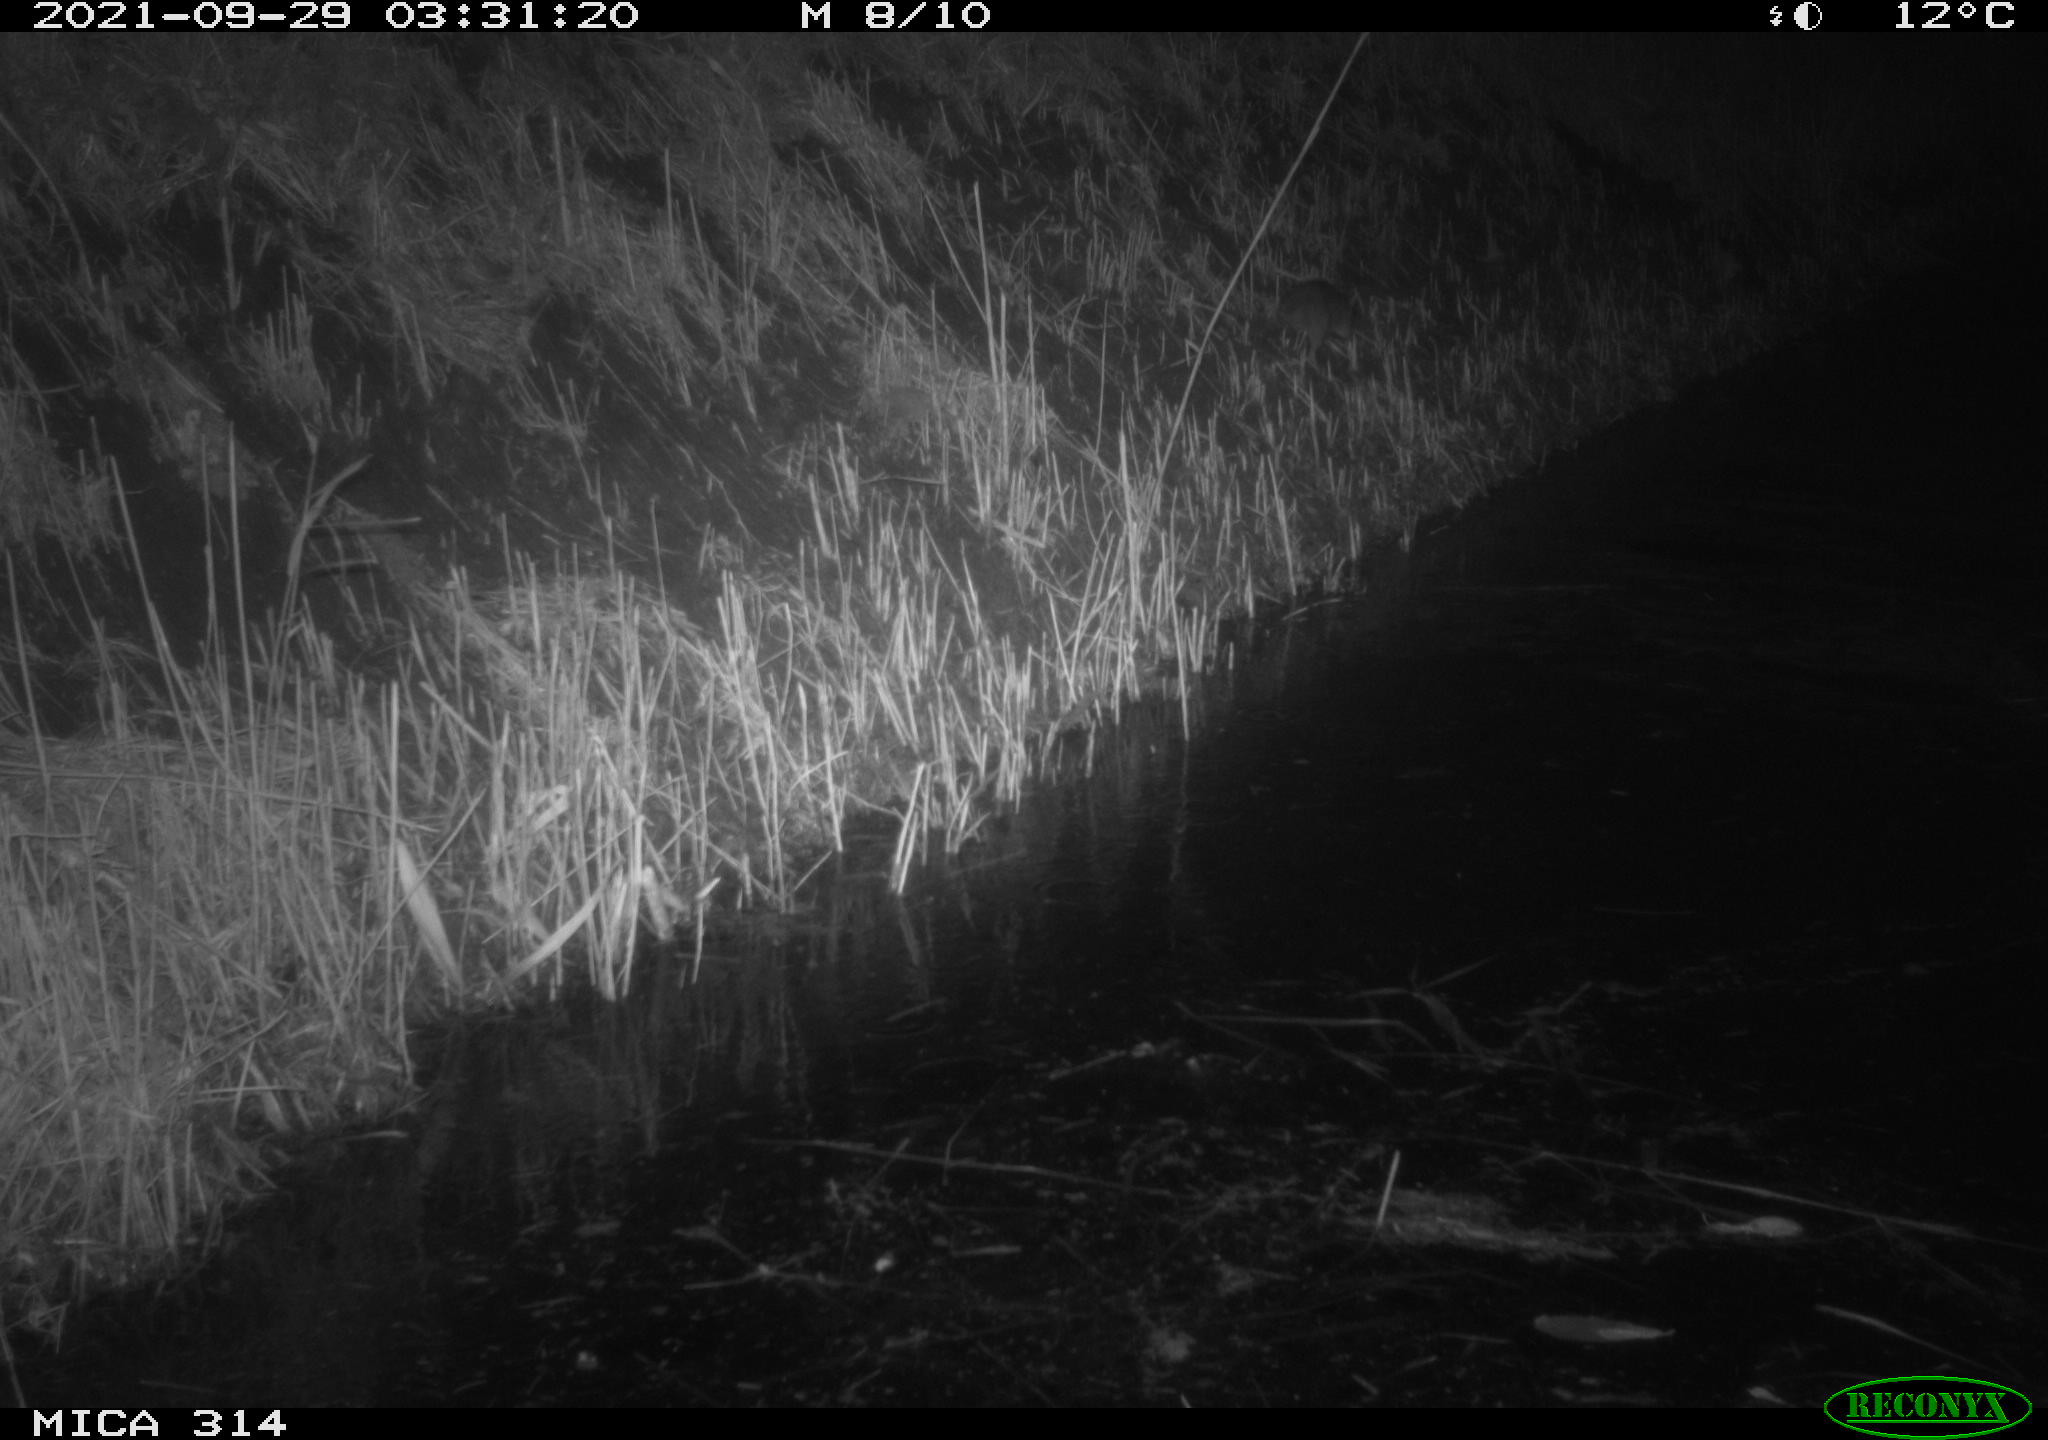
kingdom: Animalia
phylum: Chordata
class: Mammalia
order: Rodentia
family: Muridae
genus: Rattus
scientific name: Rattus norvegicus
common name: Brown rat
